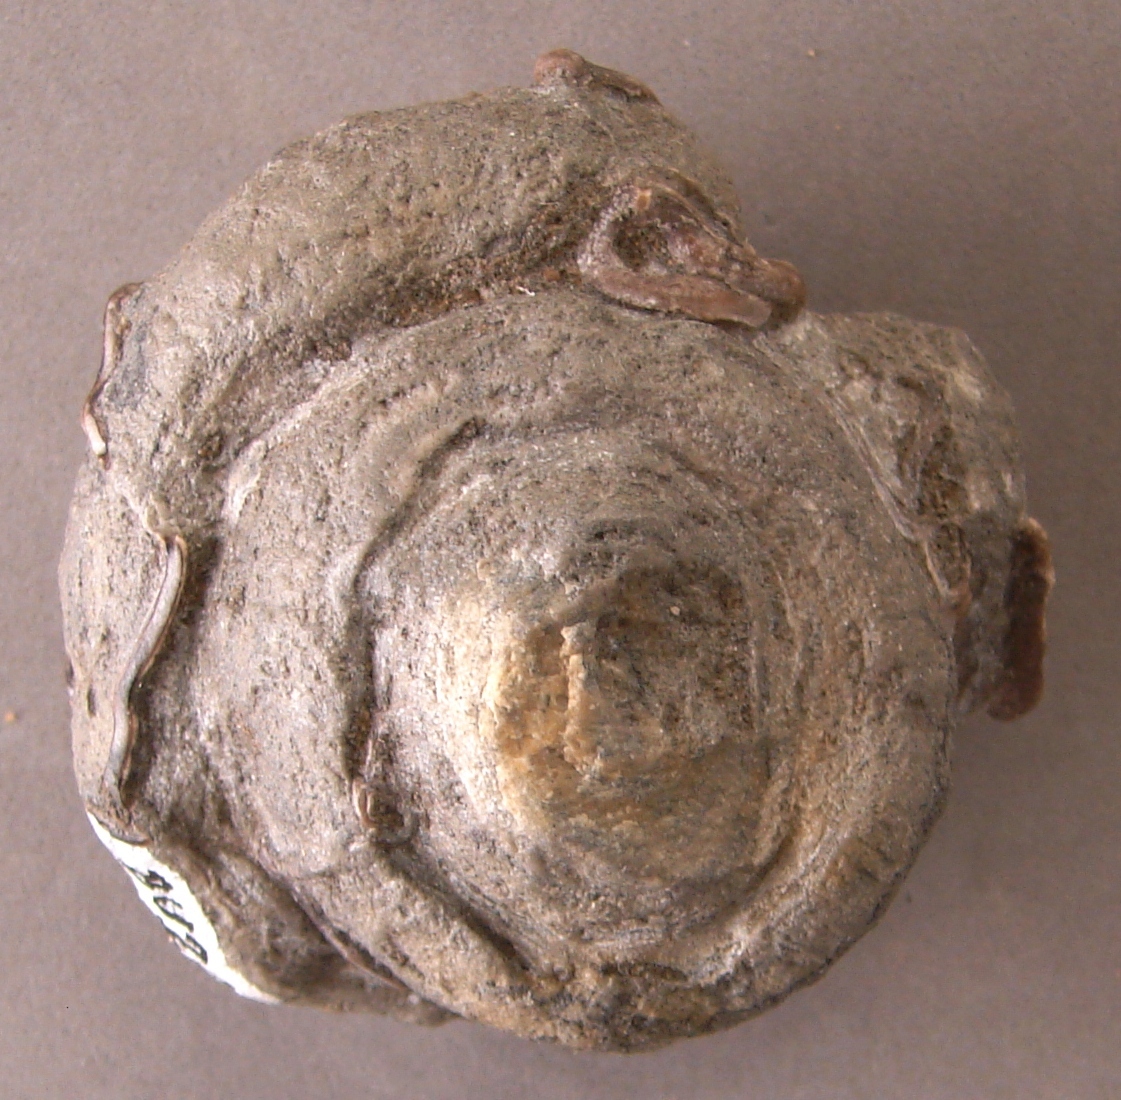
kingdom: Animalia
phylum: Porifera
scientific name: Porifera
